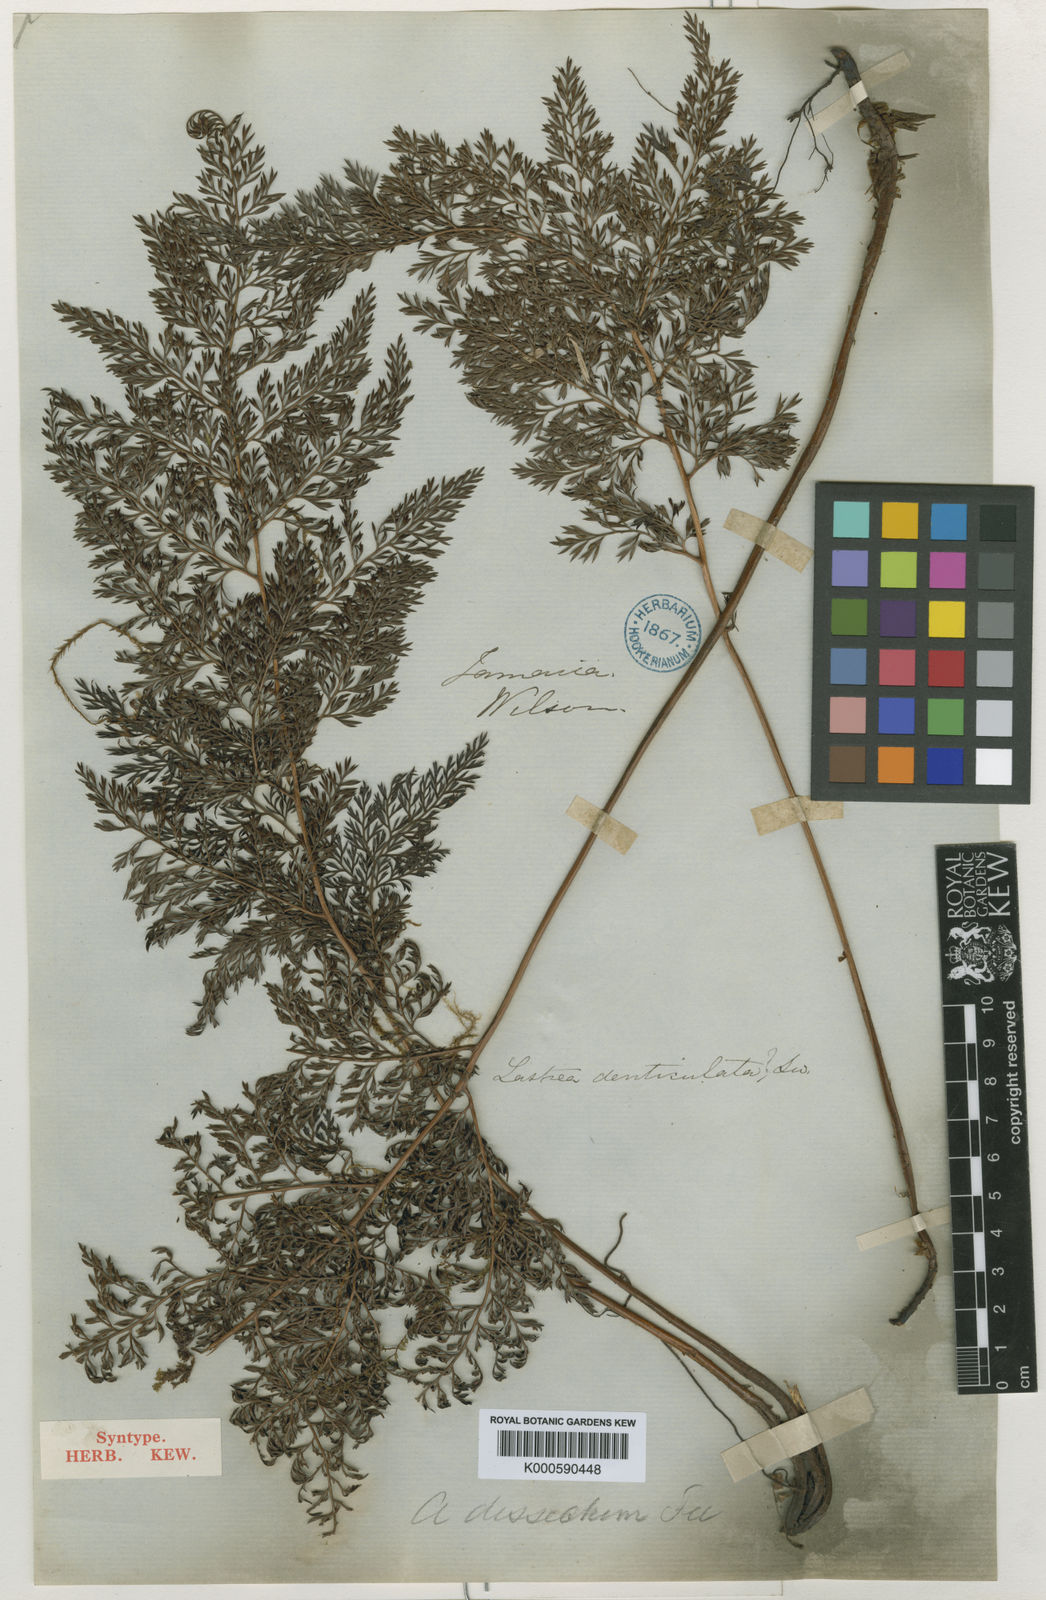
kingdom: Plantae
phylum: Tracheophyta
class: Polypodiopsida
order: Polypodiales
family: Tectariaceae
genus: Tectaria
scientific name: Tectaria Aspidium spec
